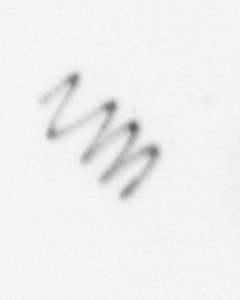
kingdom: Chromista
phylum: Ochrophyta
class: Bacillariophyceae
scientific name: Bacillariophyceae
